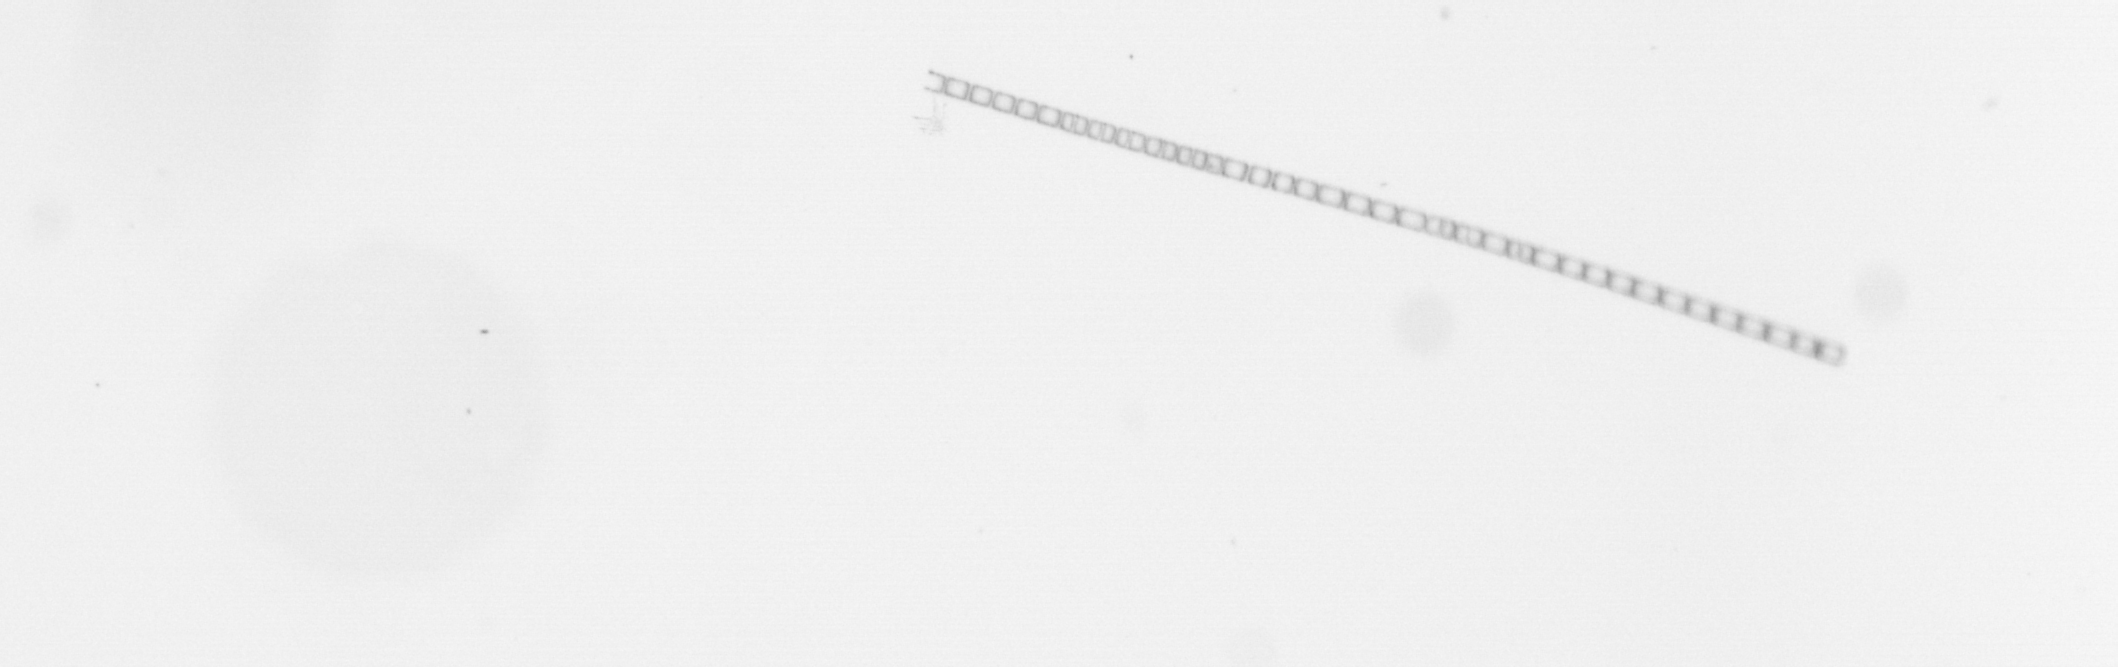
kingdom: Chromista
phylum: Ochrophyta
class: Bacillariophyceae
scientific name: Bacillariophyceae
